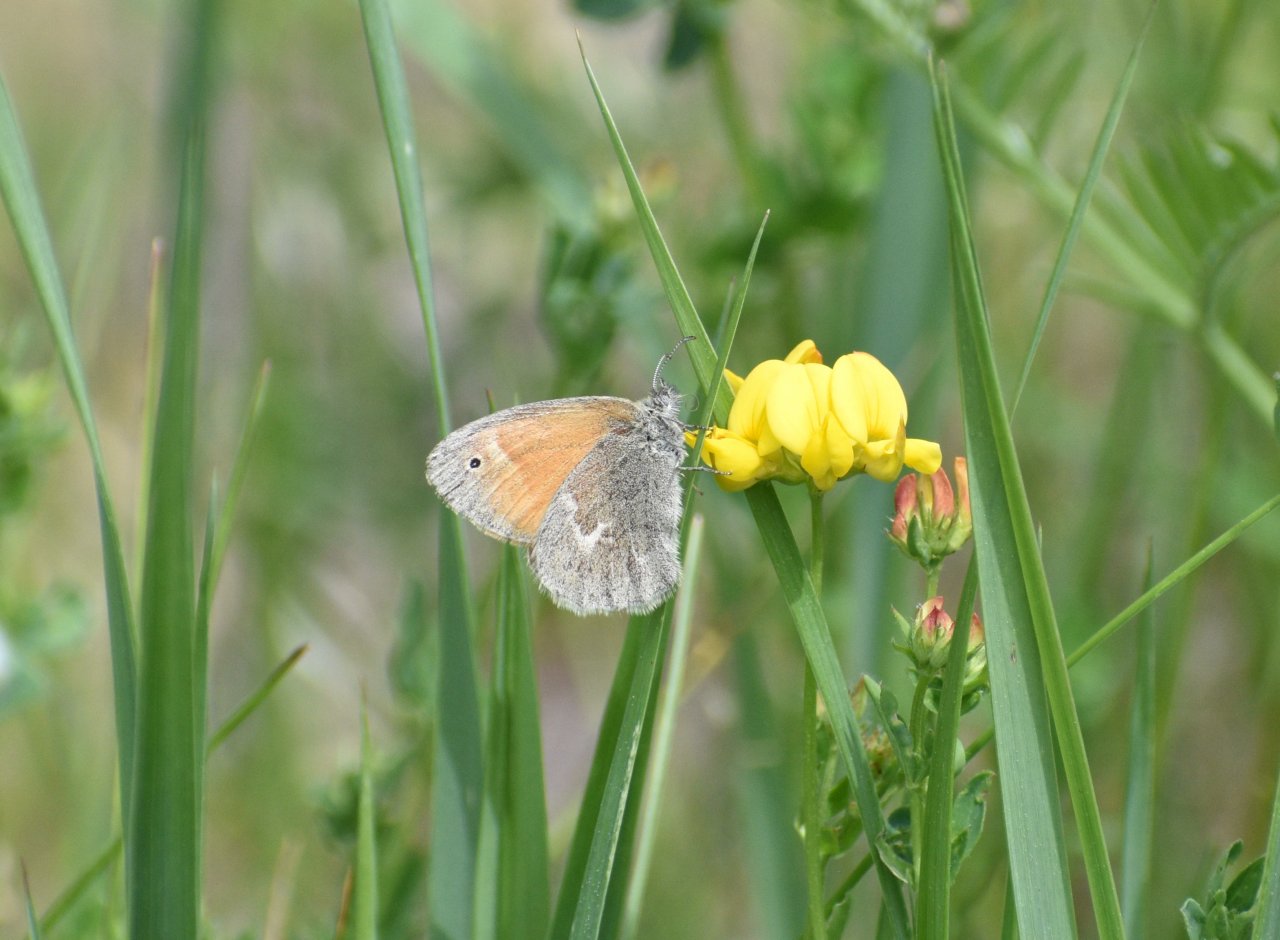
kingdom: Animalia
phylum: Arthropoda
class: Insecta
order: Lepidoptera
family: Nymphalidae
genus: Coenonympha
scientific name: Coenonympha tullia
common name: Large Heath
